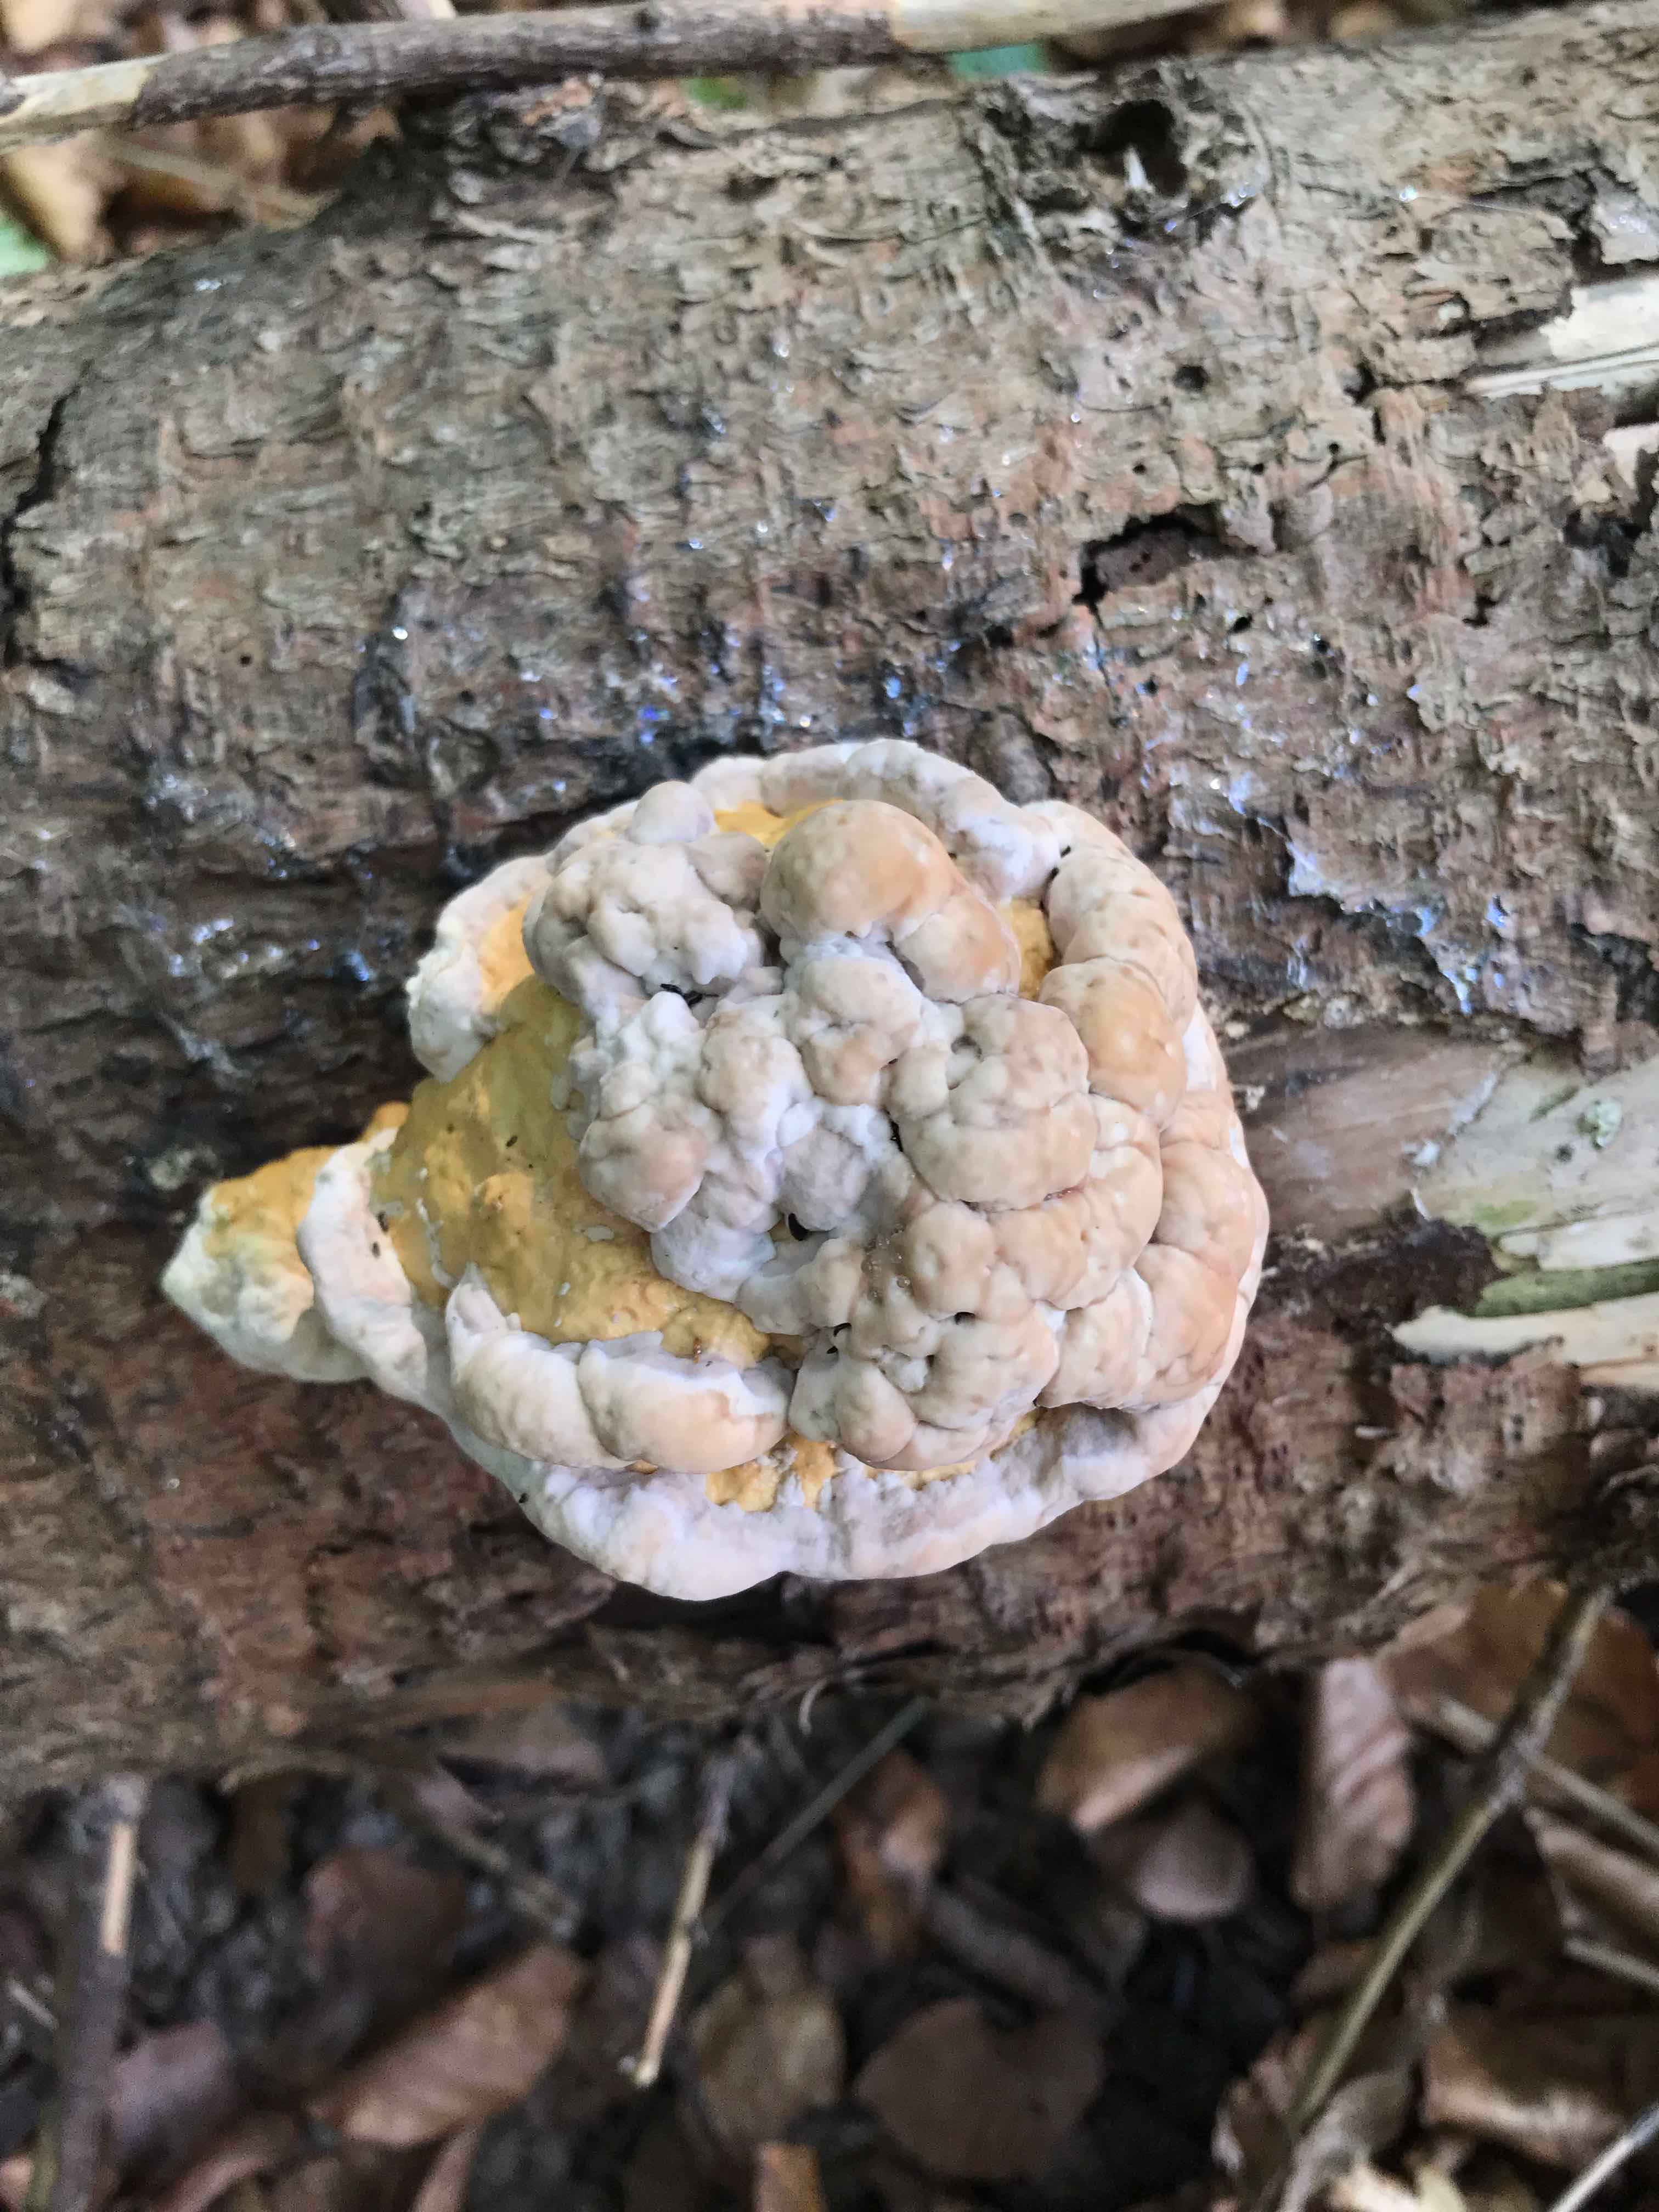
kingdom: Fungi
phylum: Basidiomycota
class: Agaricomycetes
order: Polyporales
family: Fomitopsidaceae
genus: Fomitopsis
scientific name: Fomitopsis pinicola
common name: randbæltet hovporesvamp
